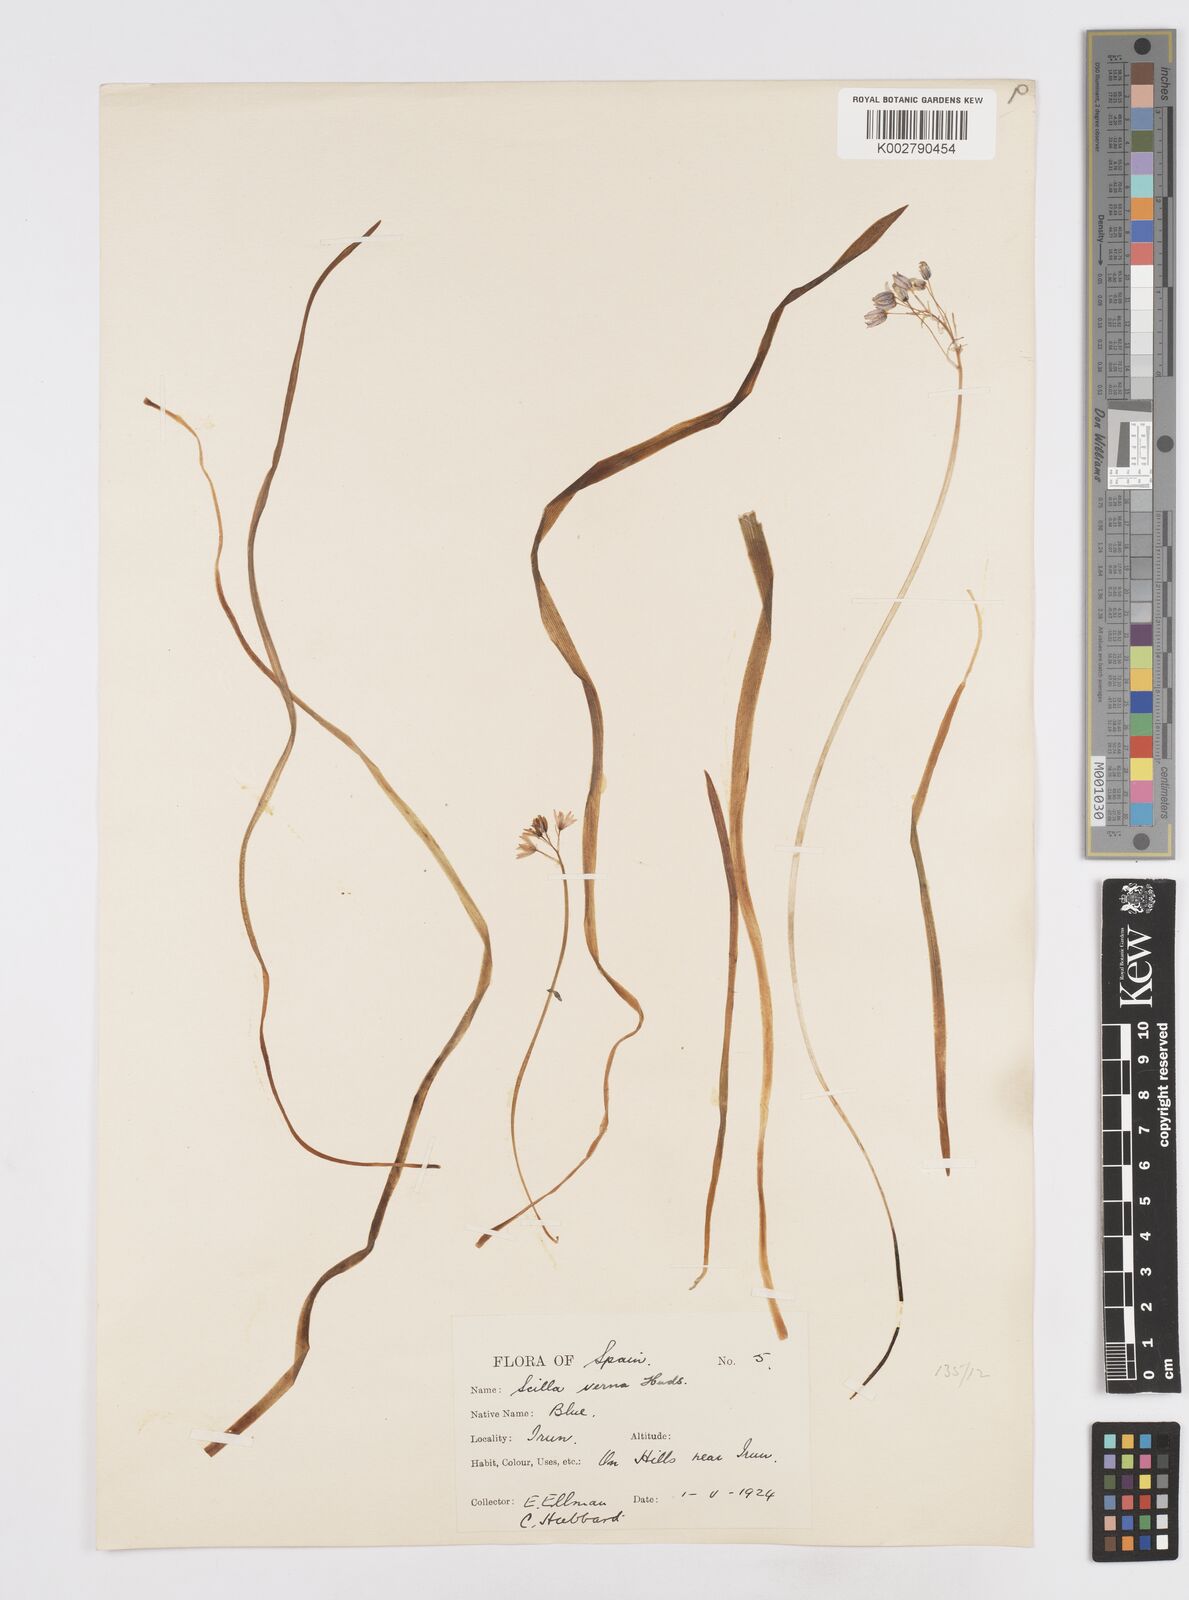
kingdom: Plantae
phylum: Tracheophyta
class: Liliopsida
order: Asparagales
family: Asparagaceae
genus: Scilla
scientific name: Scilla verna
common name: Spring squill
